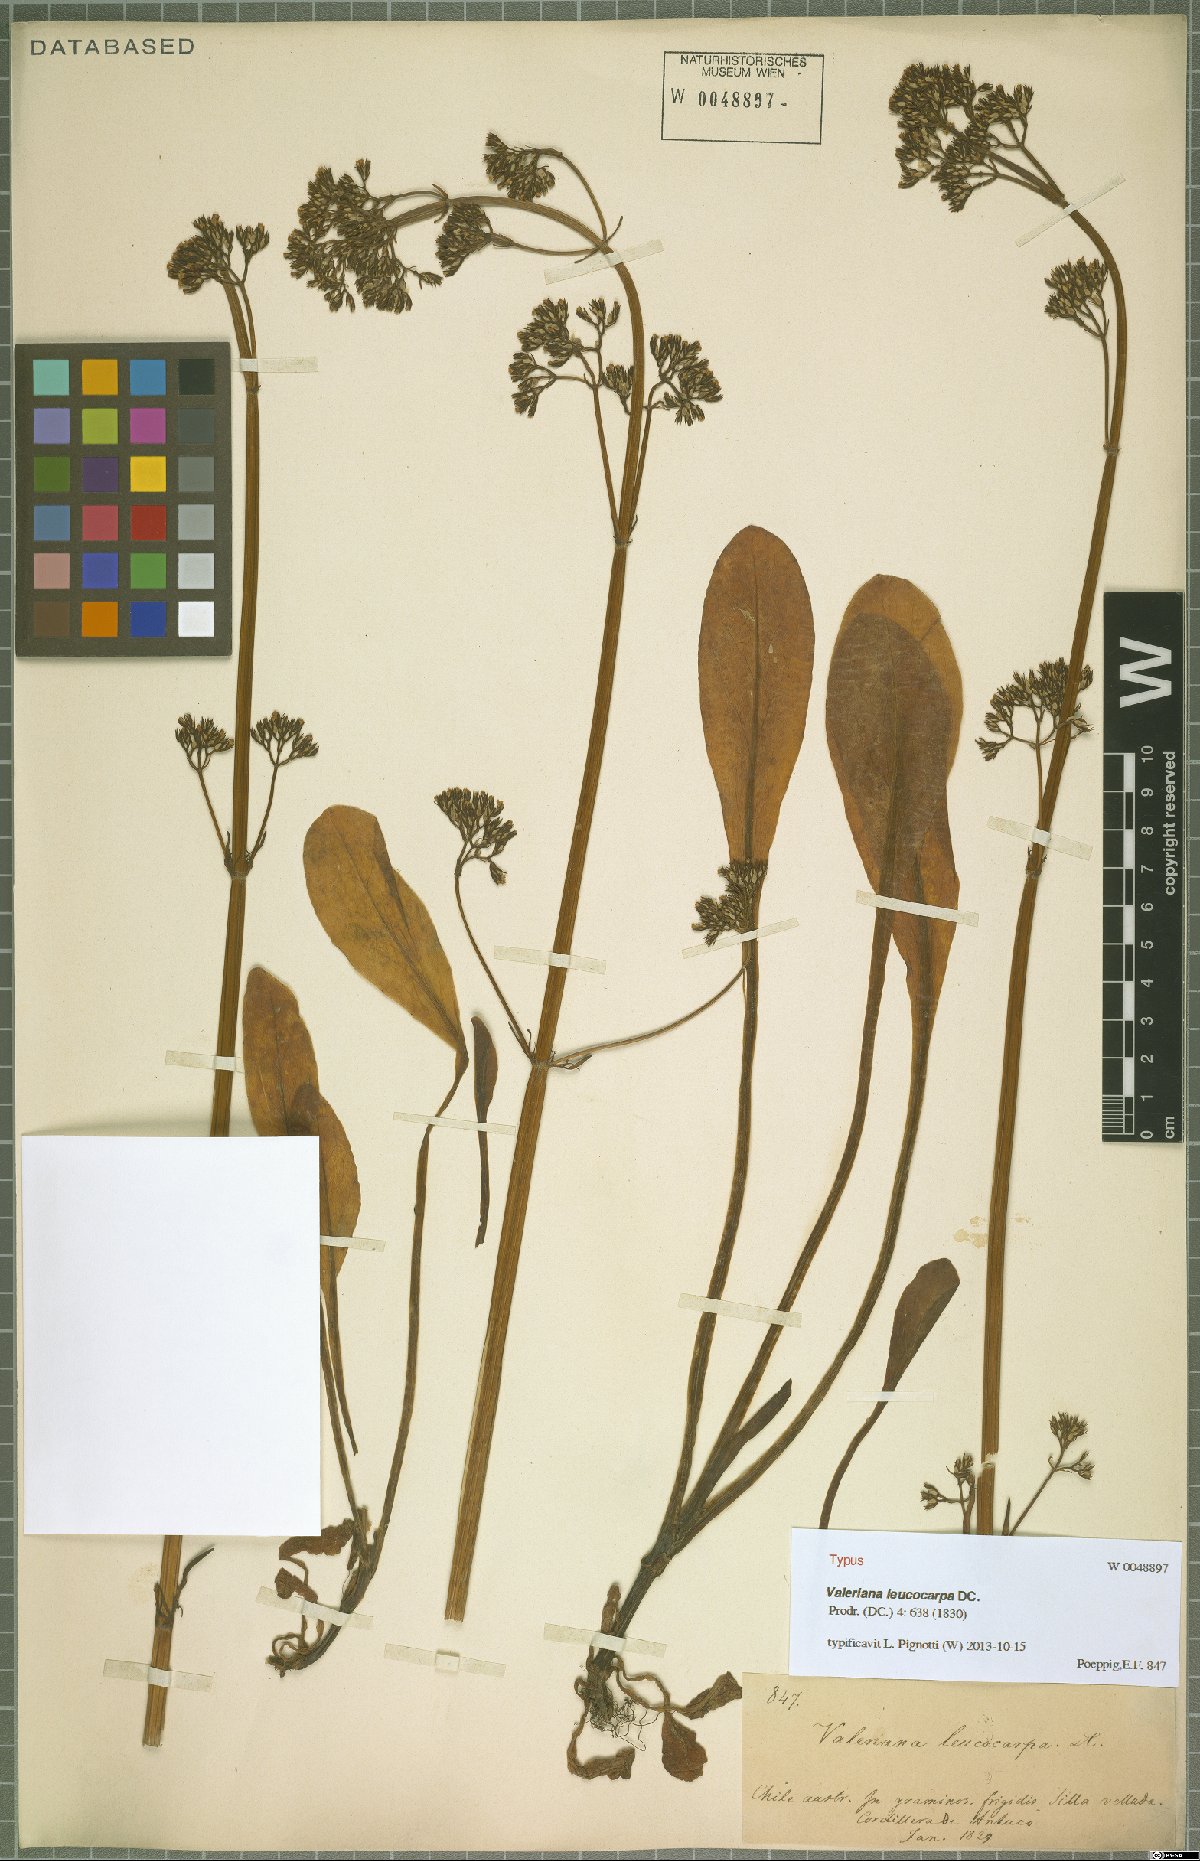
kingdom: Plantae
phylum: Tracheophyta
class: Magnoliopsida
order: Dipsacales
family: Caprifoliaceae
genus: Valeriana
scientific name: Valeriana leucocarpa
